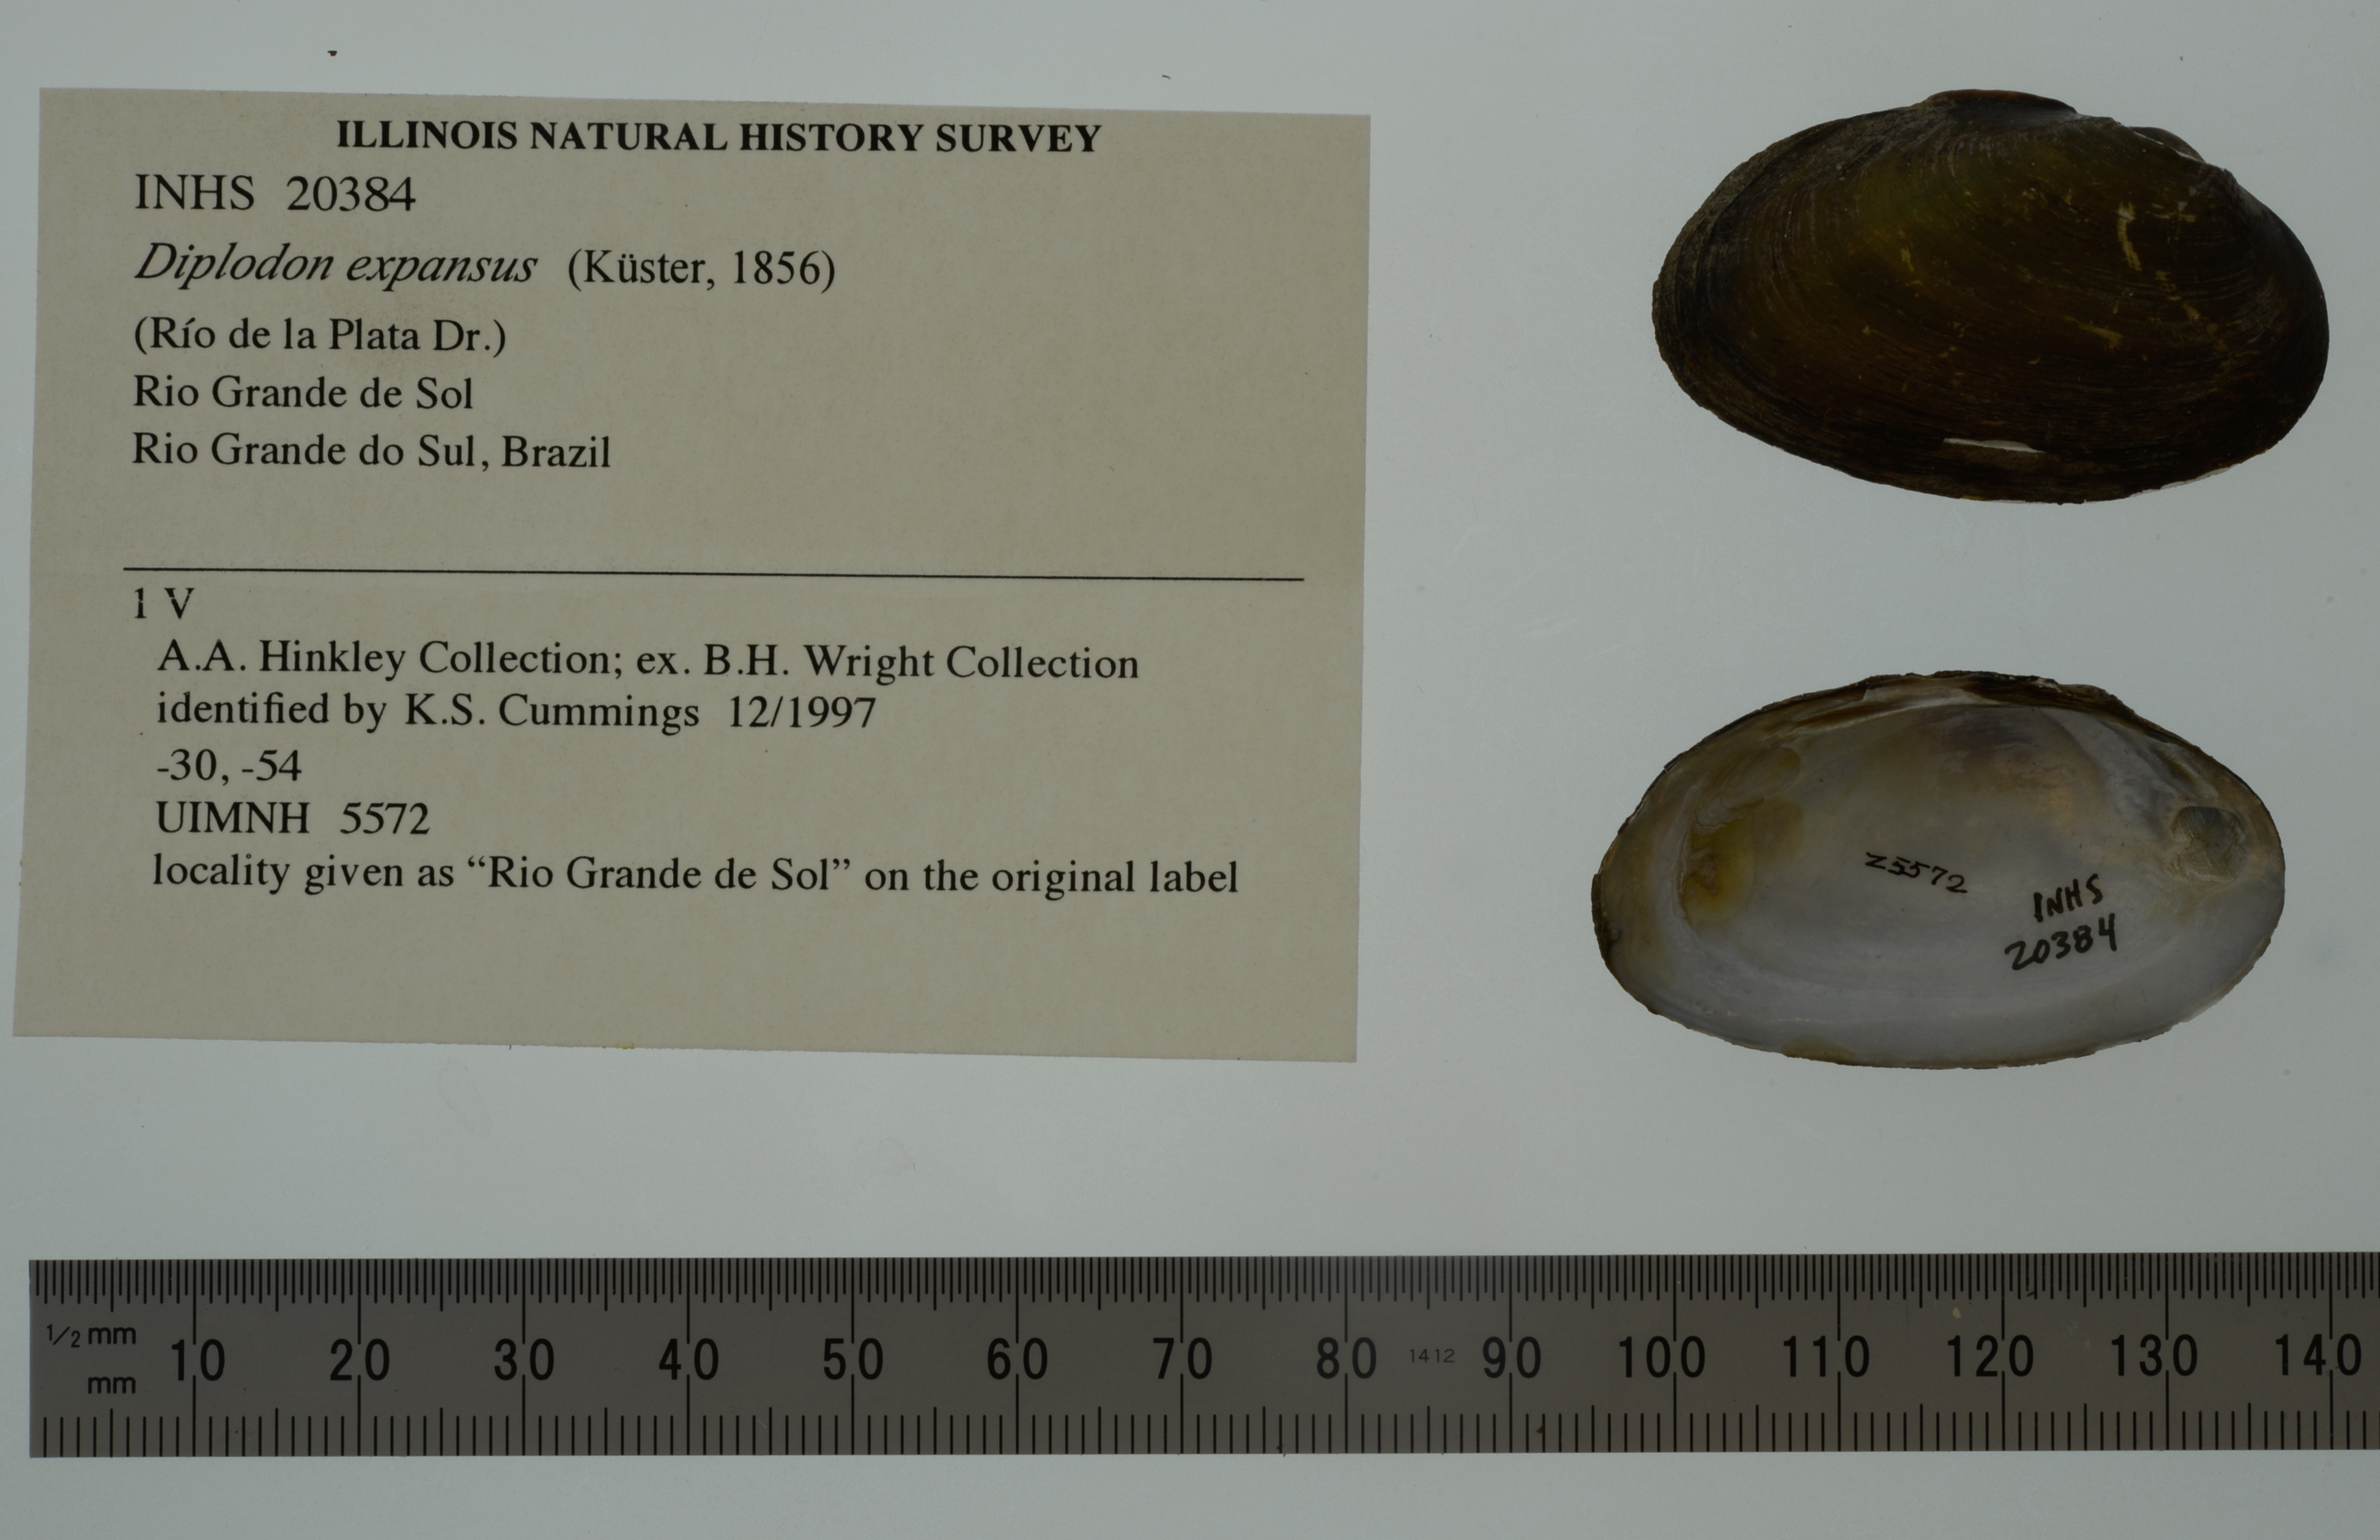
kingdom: Animalia
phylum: Mollusca
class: Bivalvia
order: Unionida
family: Hyriidae
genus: Diplodon
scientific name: Diplodon multistriatus
